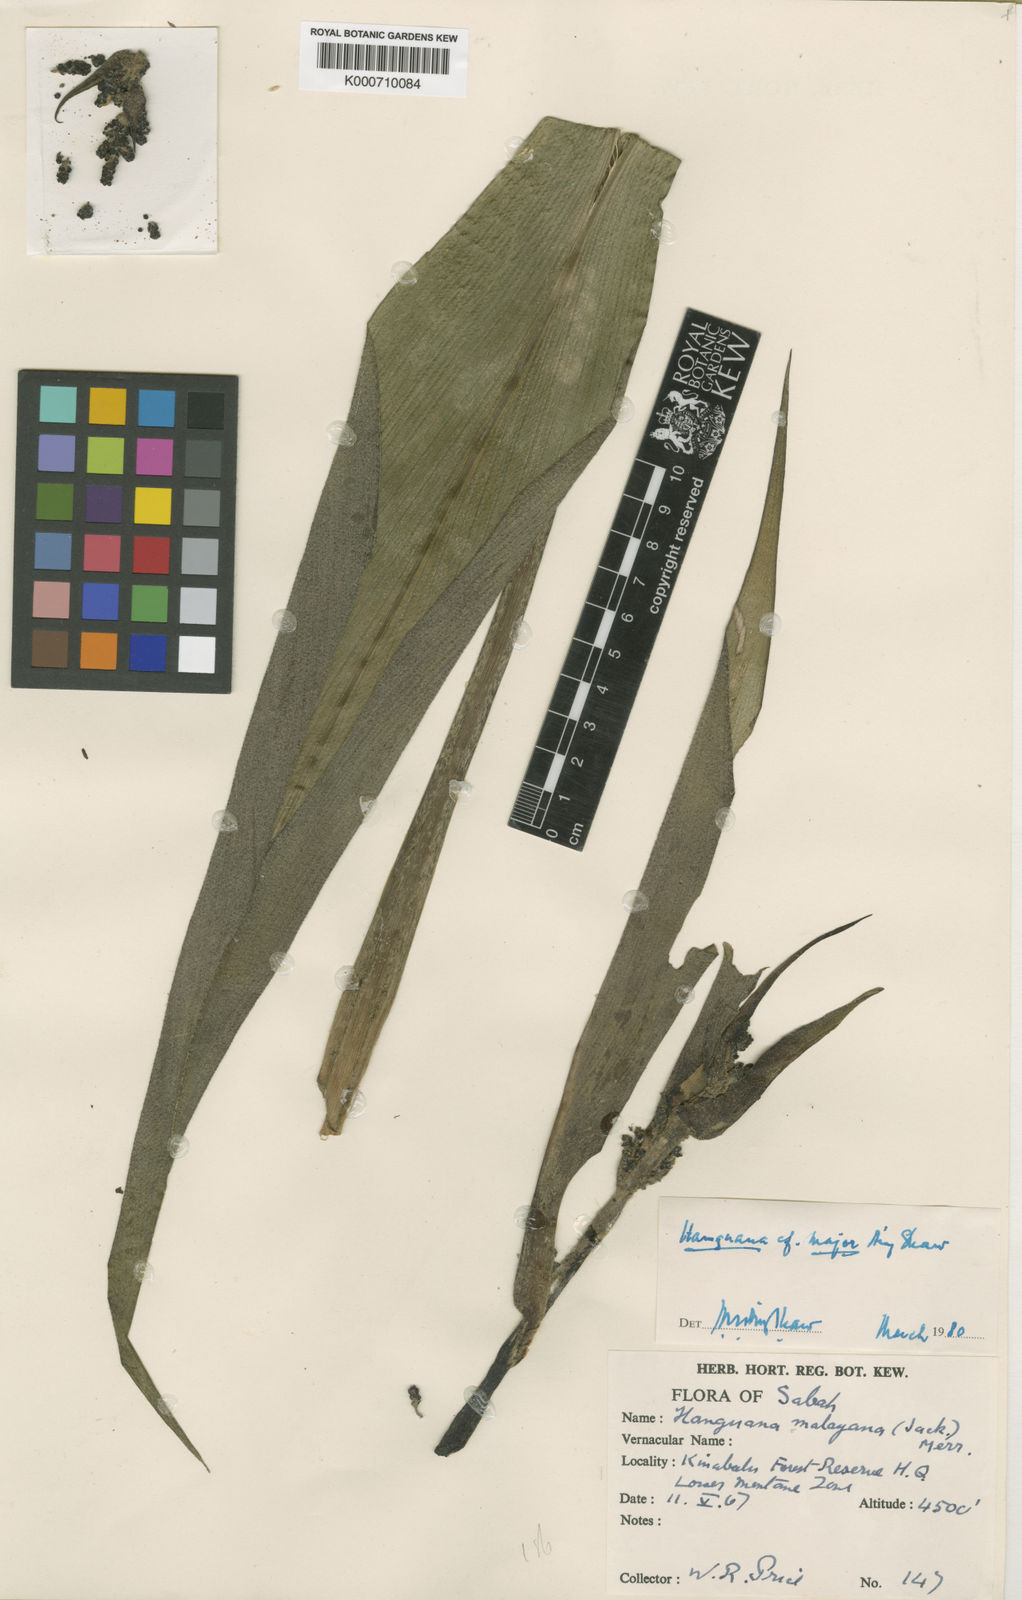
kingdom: Plantae
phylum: Tracheophyta
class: Liliopsida
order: Commelinales
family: Hanguanaceae
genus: Hanguana
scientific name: Hanguana major
